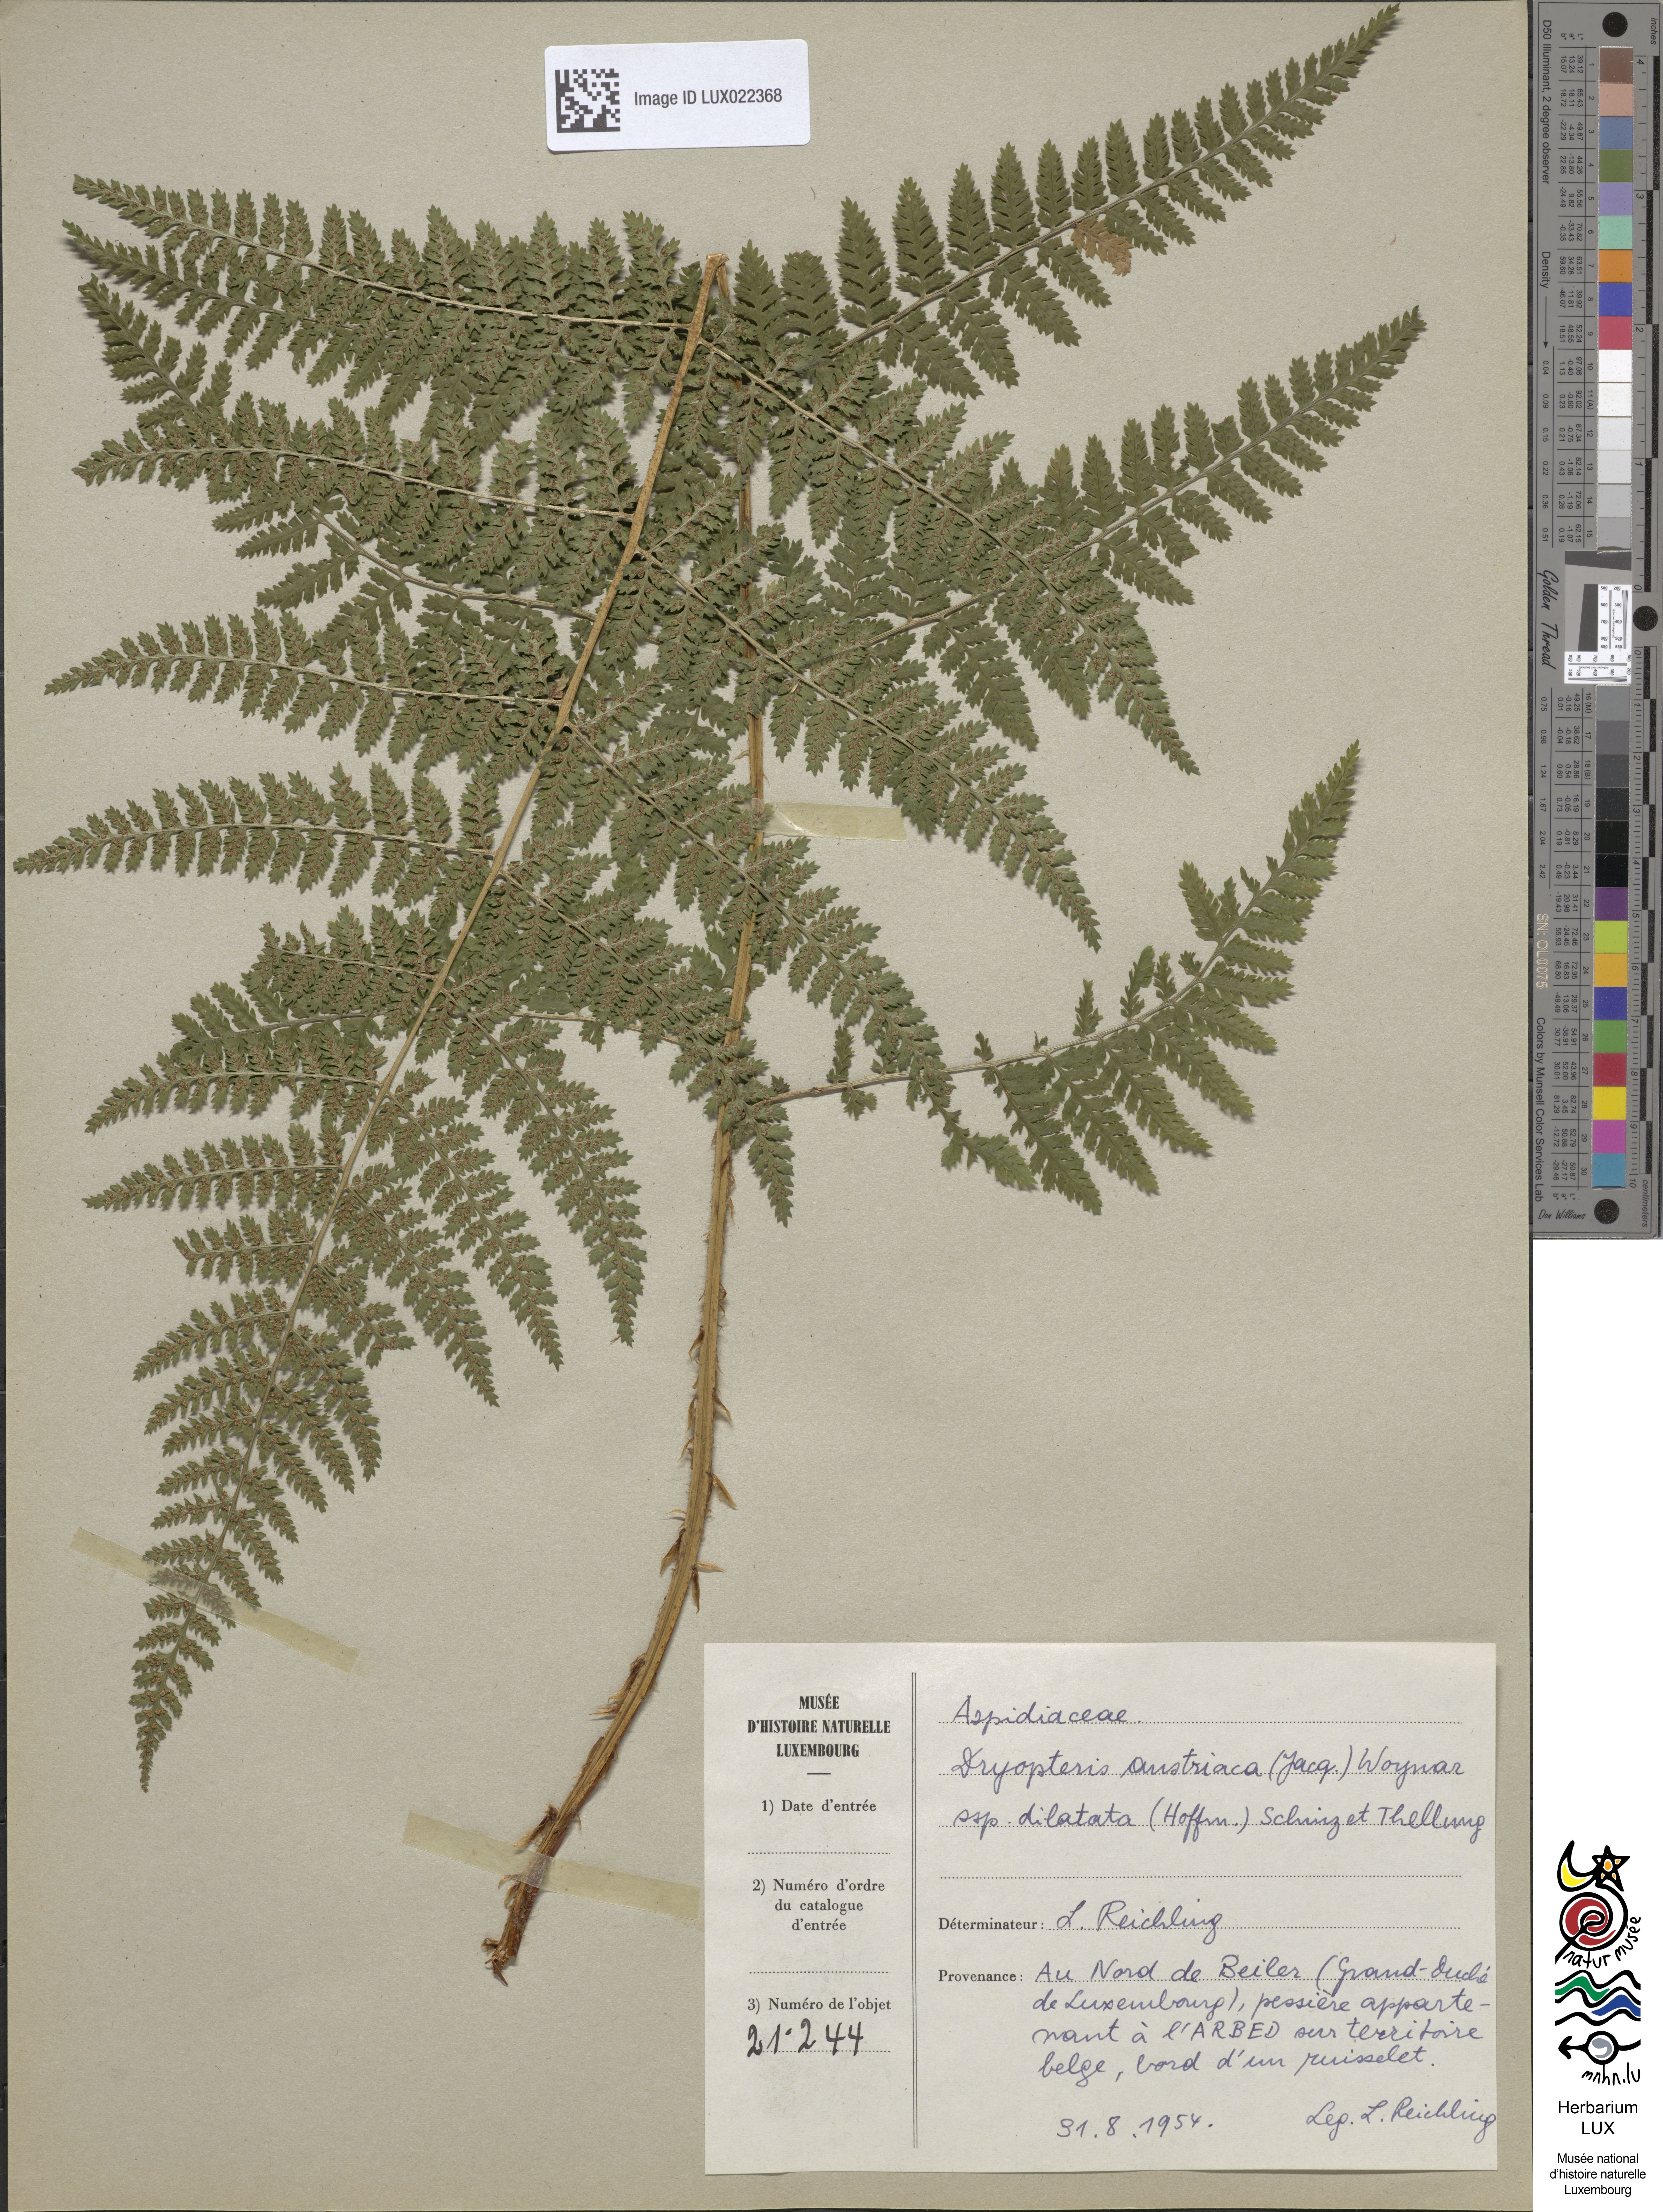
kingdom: Plantae
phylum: Tracheophyta
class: Polypodiopsida
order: Polypodiales
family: Dryopteridaceae
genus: Dryopteris
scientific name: Dryopteris dilatata
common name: Broad buckler-fern
